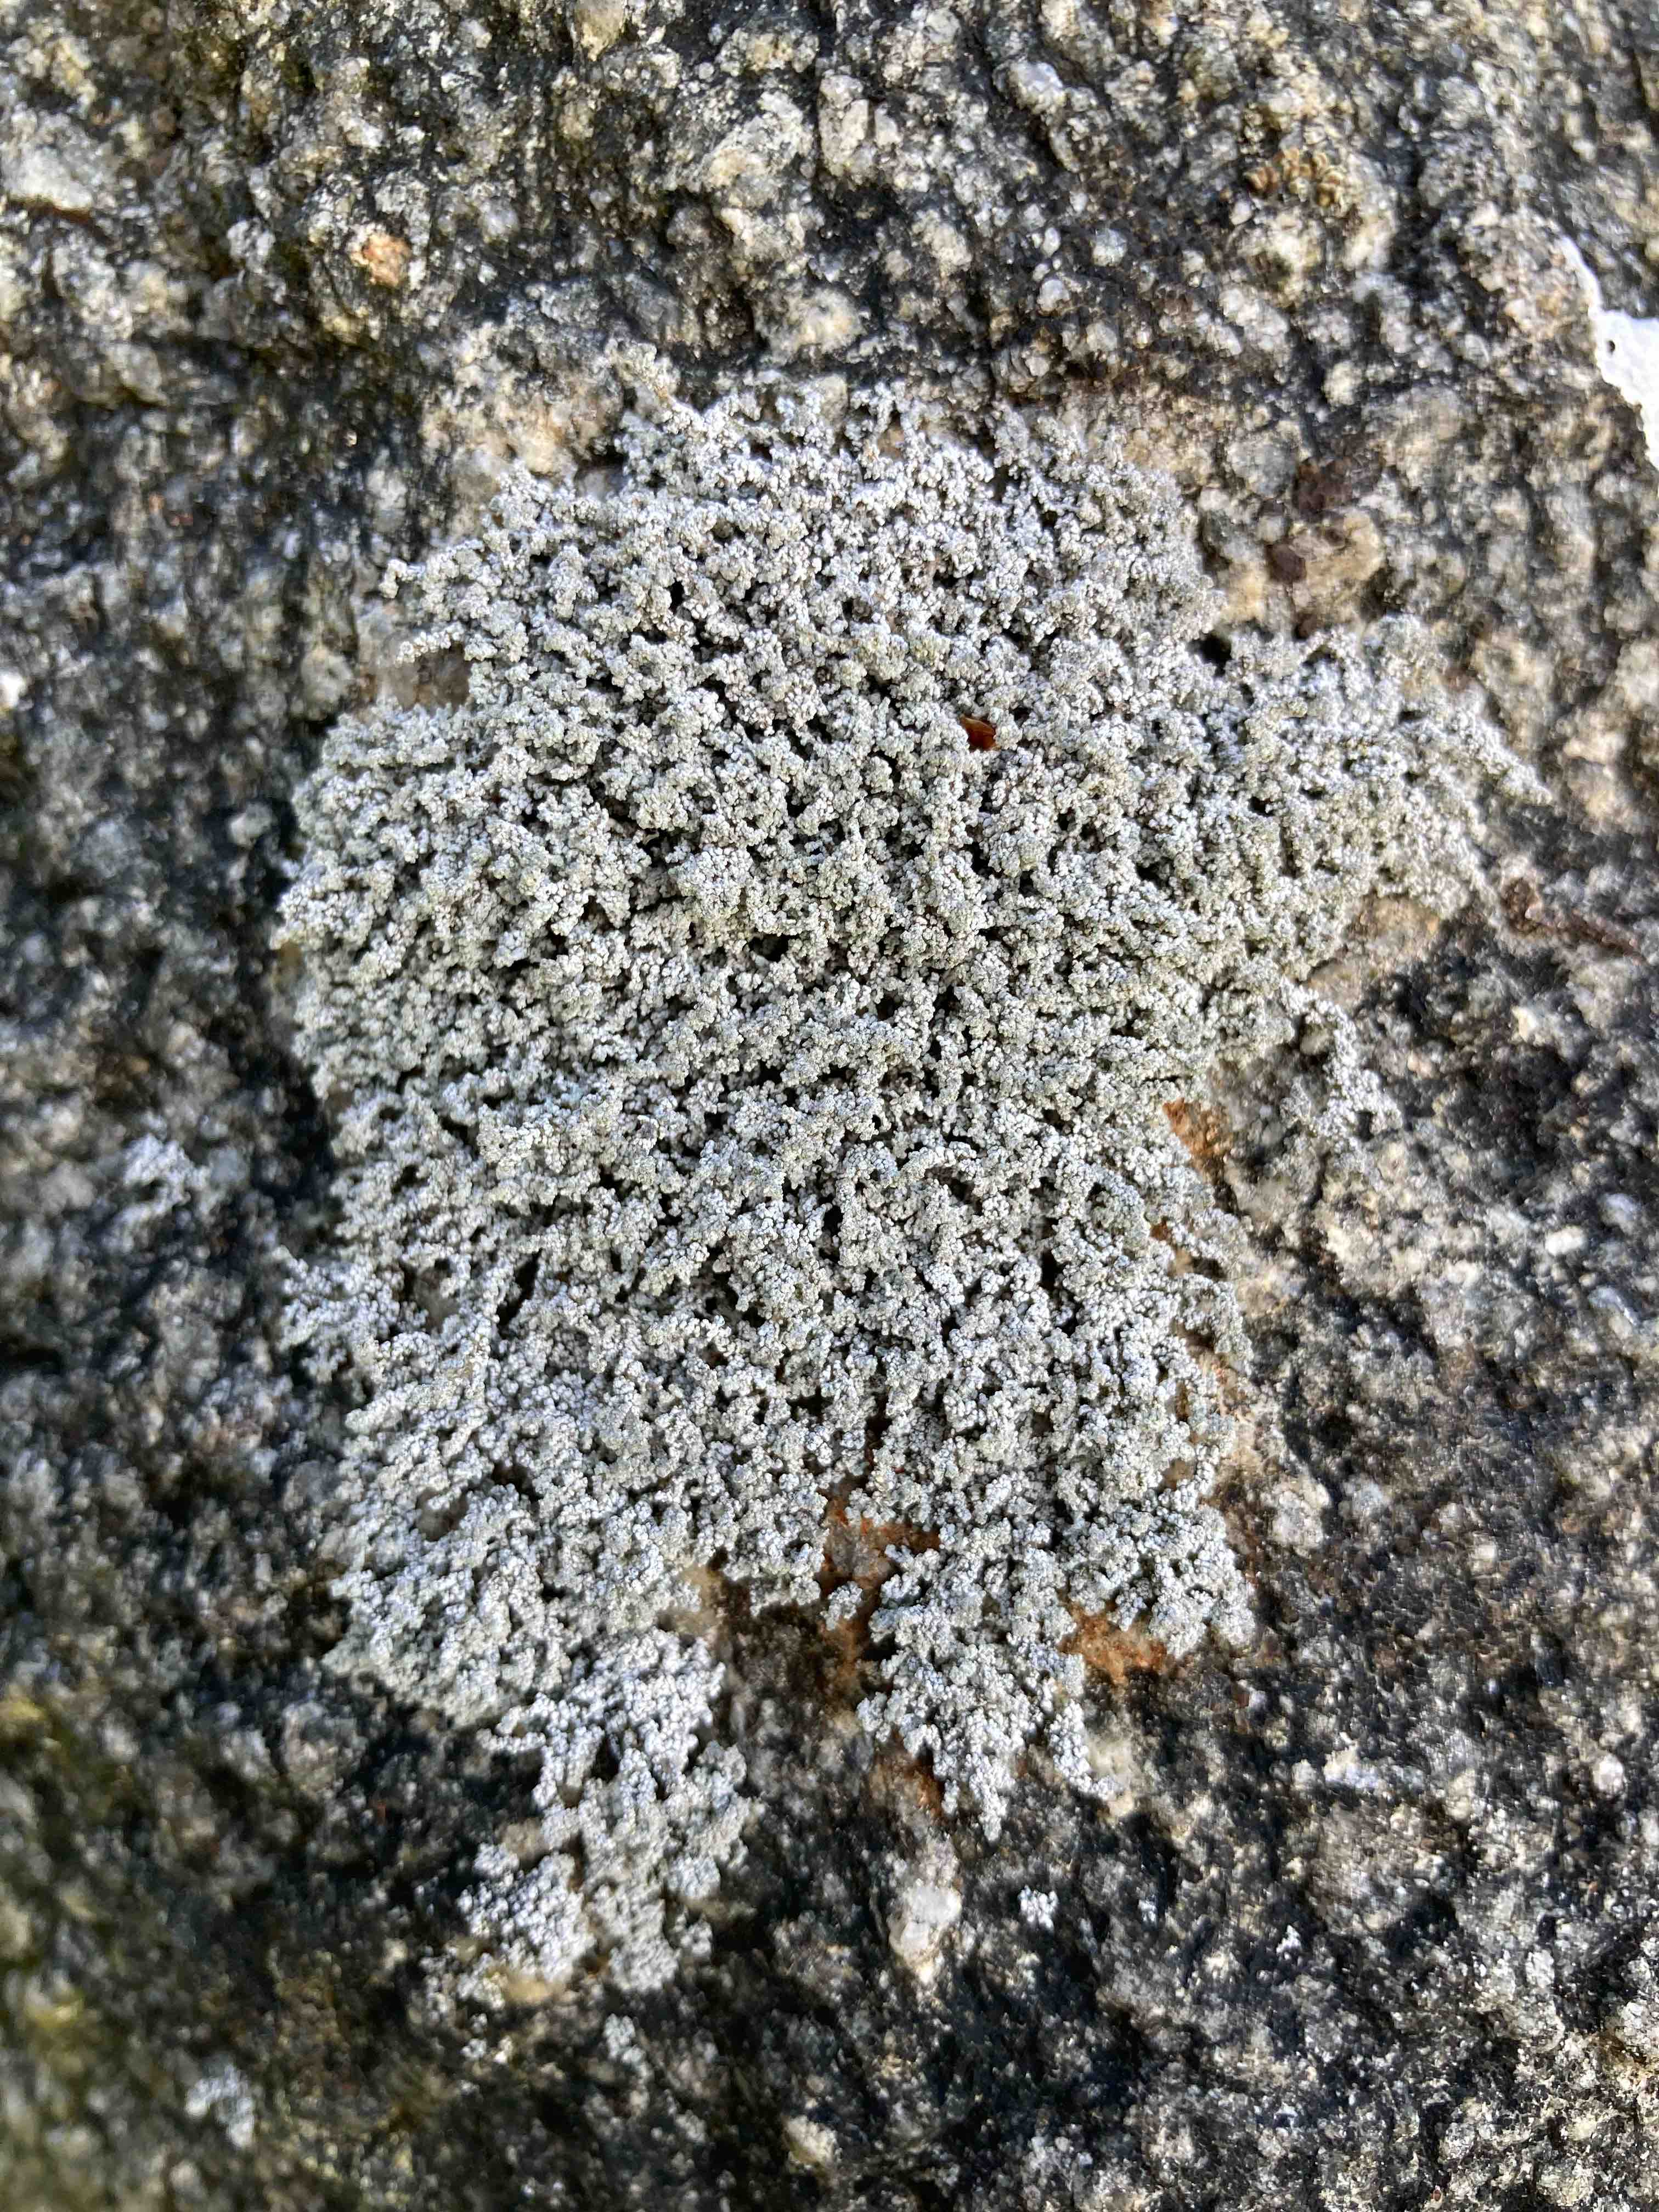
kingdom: Fungi
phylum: Ascomycota
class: Lecanoromycetes
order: Lecanorales
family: Stereocaulaceae
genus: Stereocaulon
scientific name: Stereocaulon vesuvianum
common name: skjold-korallav
